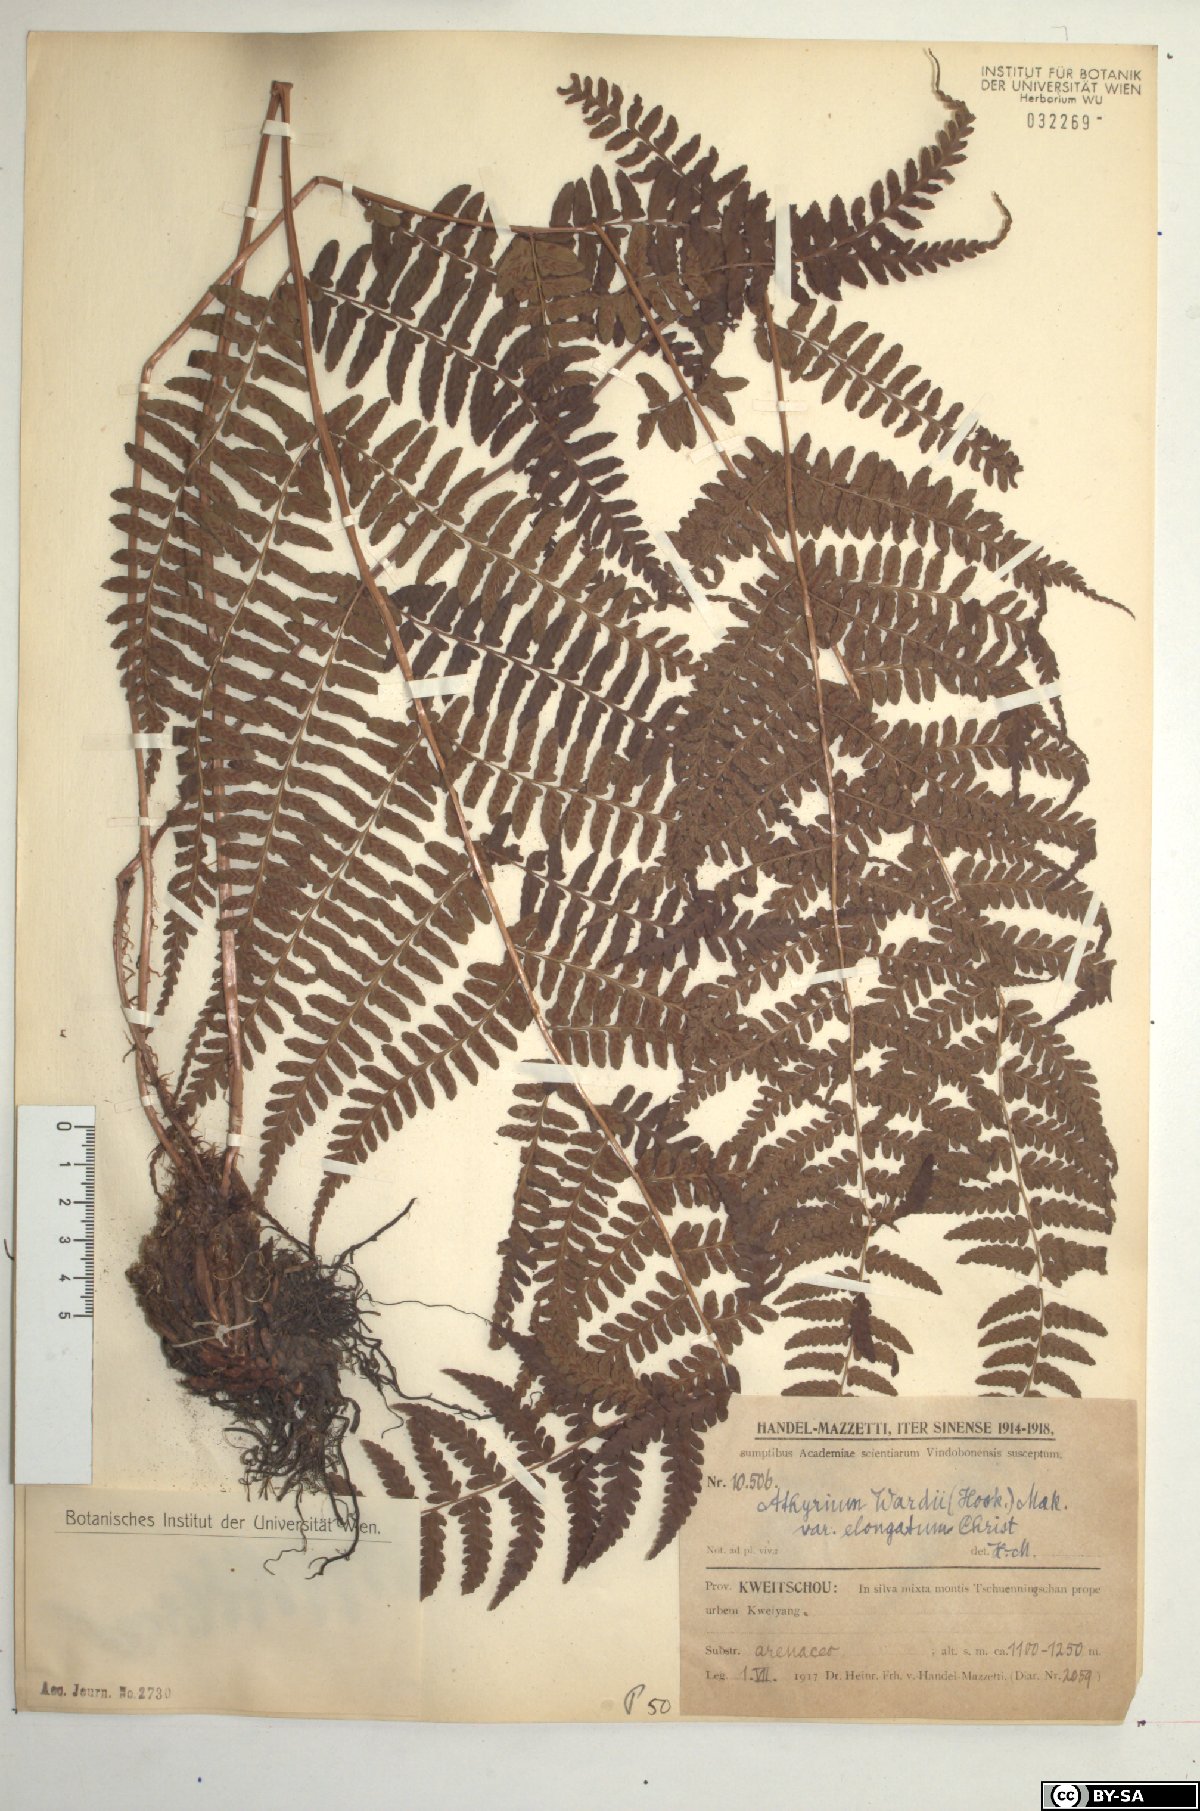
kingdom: Plantae
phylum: Tracheophyta
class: Polypodiopsida
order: Polypodiales
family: Athyriaceae
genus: Athyrium
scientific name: Athyrium epirachis
